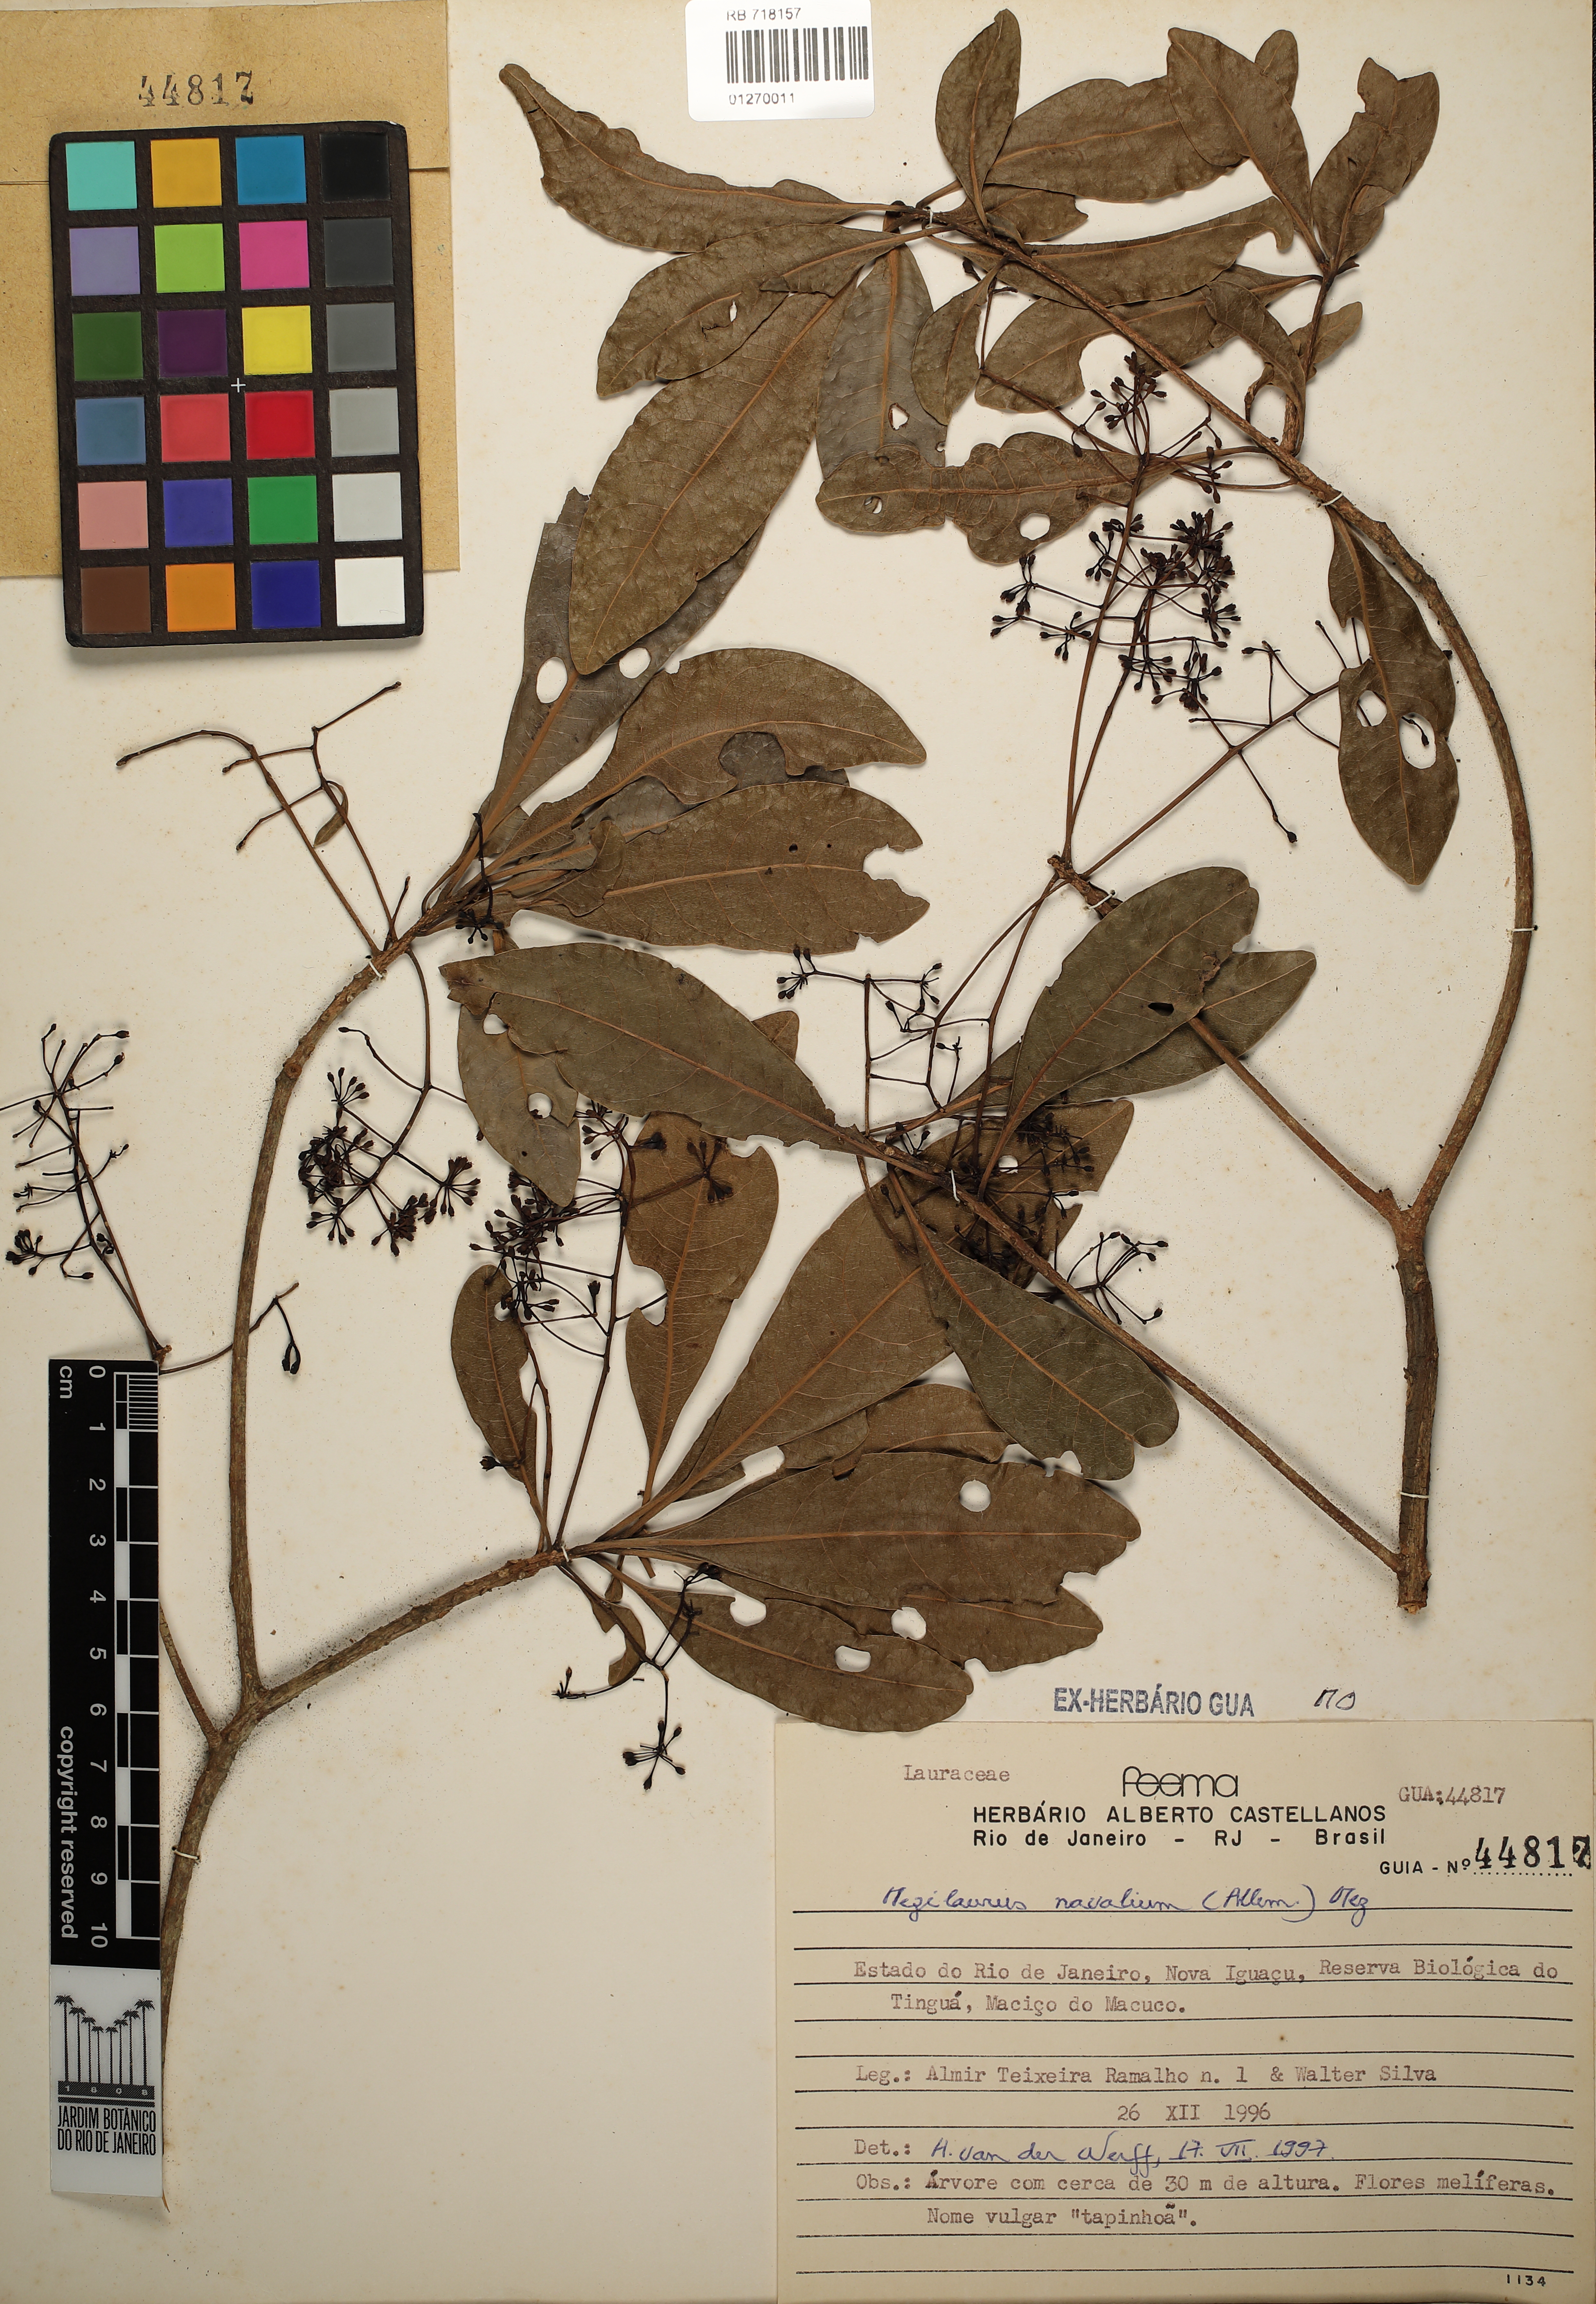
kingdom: Plantae
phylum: Tracheophyta
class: Magnoliopsida
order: Laurales
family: Lauraceae
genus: Mezilaurus
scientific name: Mezilaurus navalium
